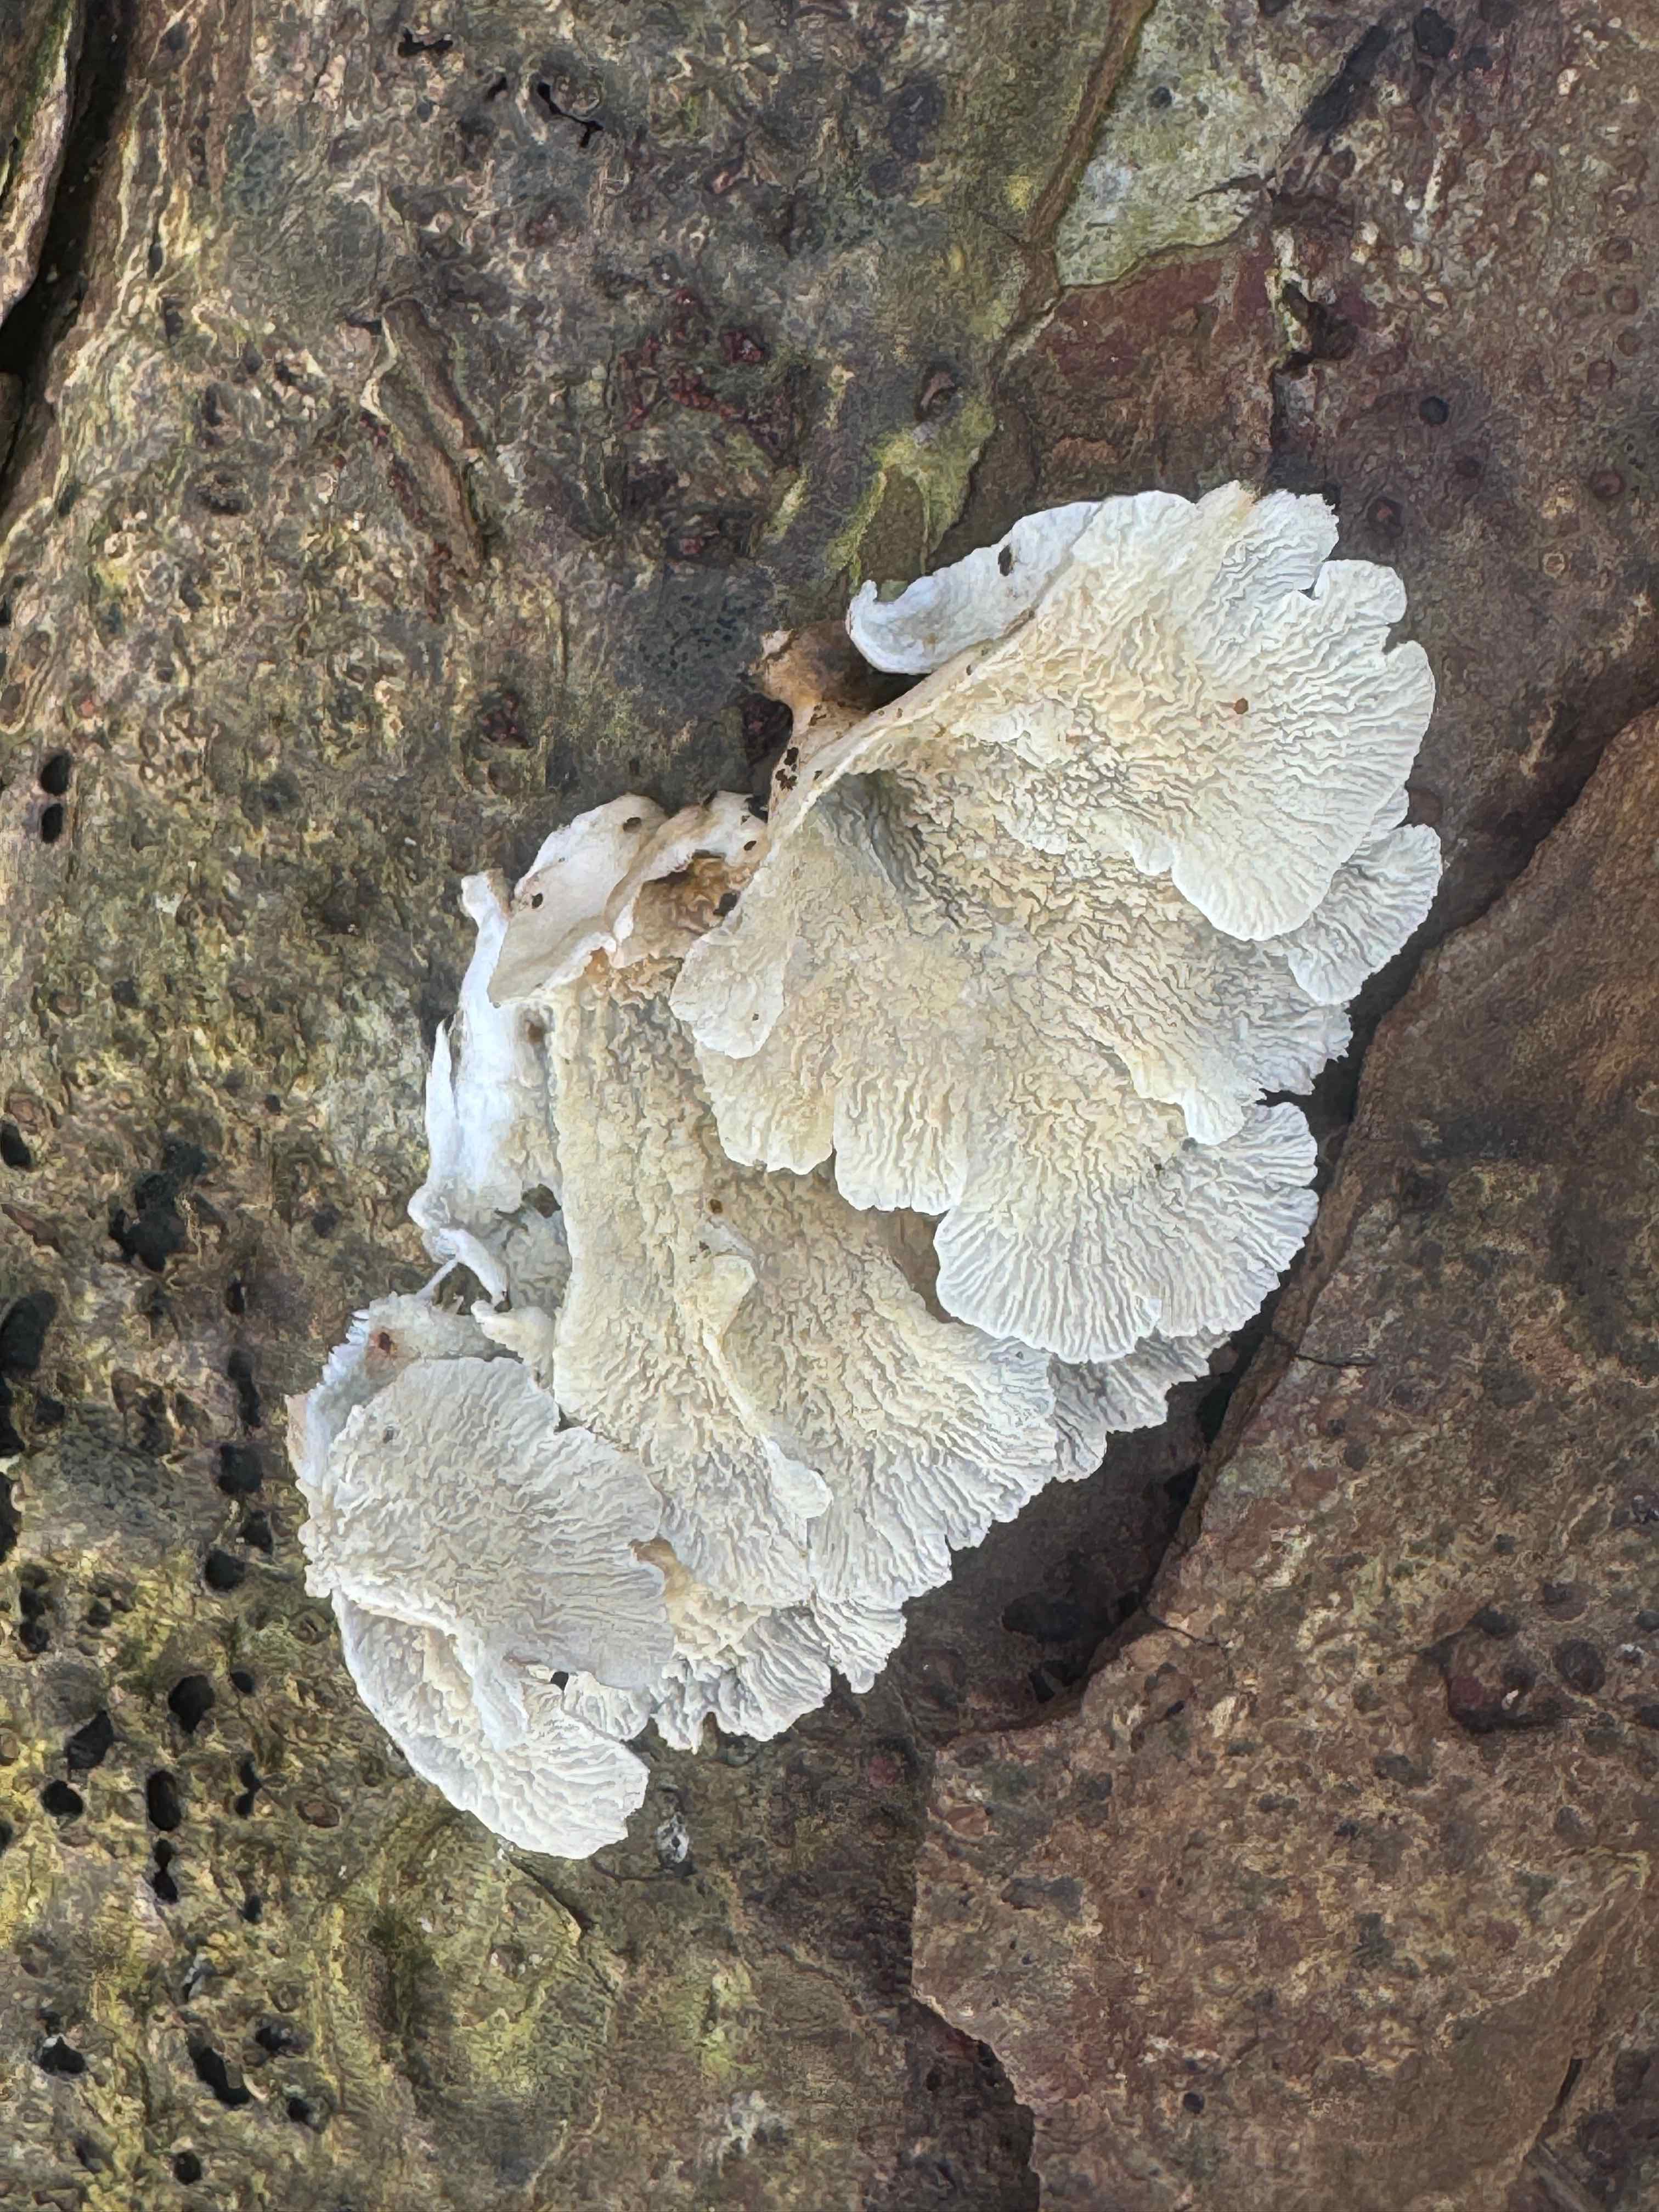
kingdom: Fungi
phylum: Basidiomycota
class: Agaricomycetes
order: Amylocorticiales
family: Amylocorticiaceae
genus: Plicaturopsis
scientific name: Plicaturopsis crispa
